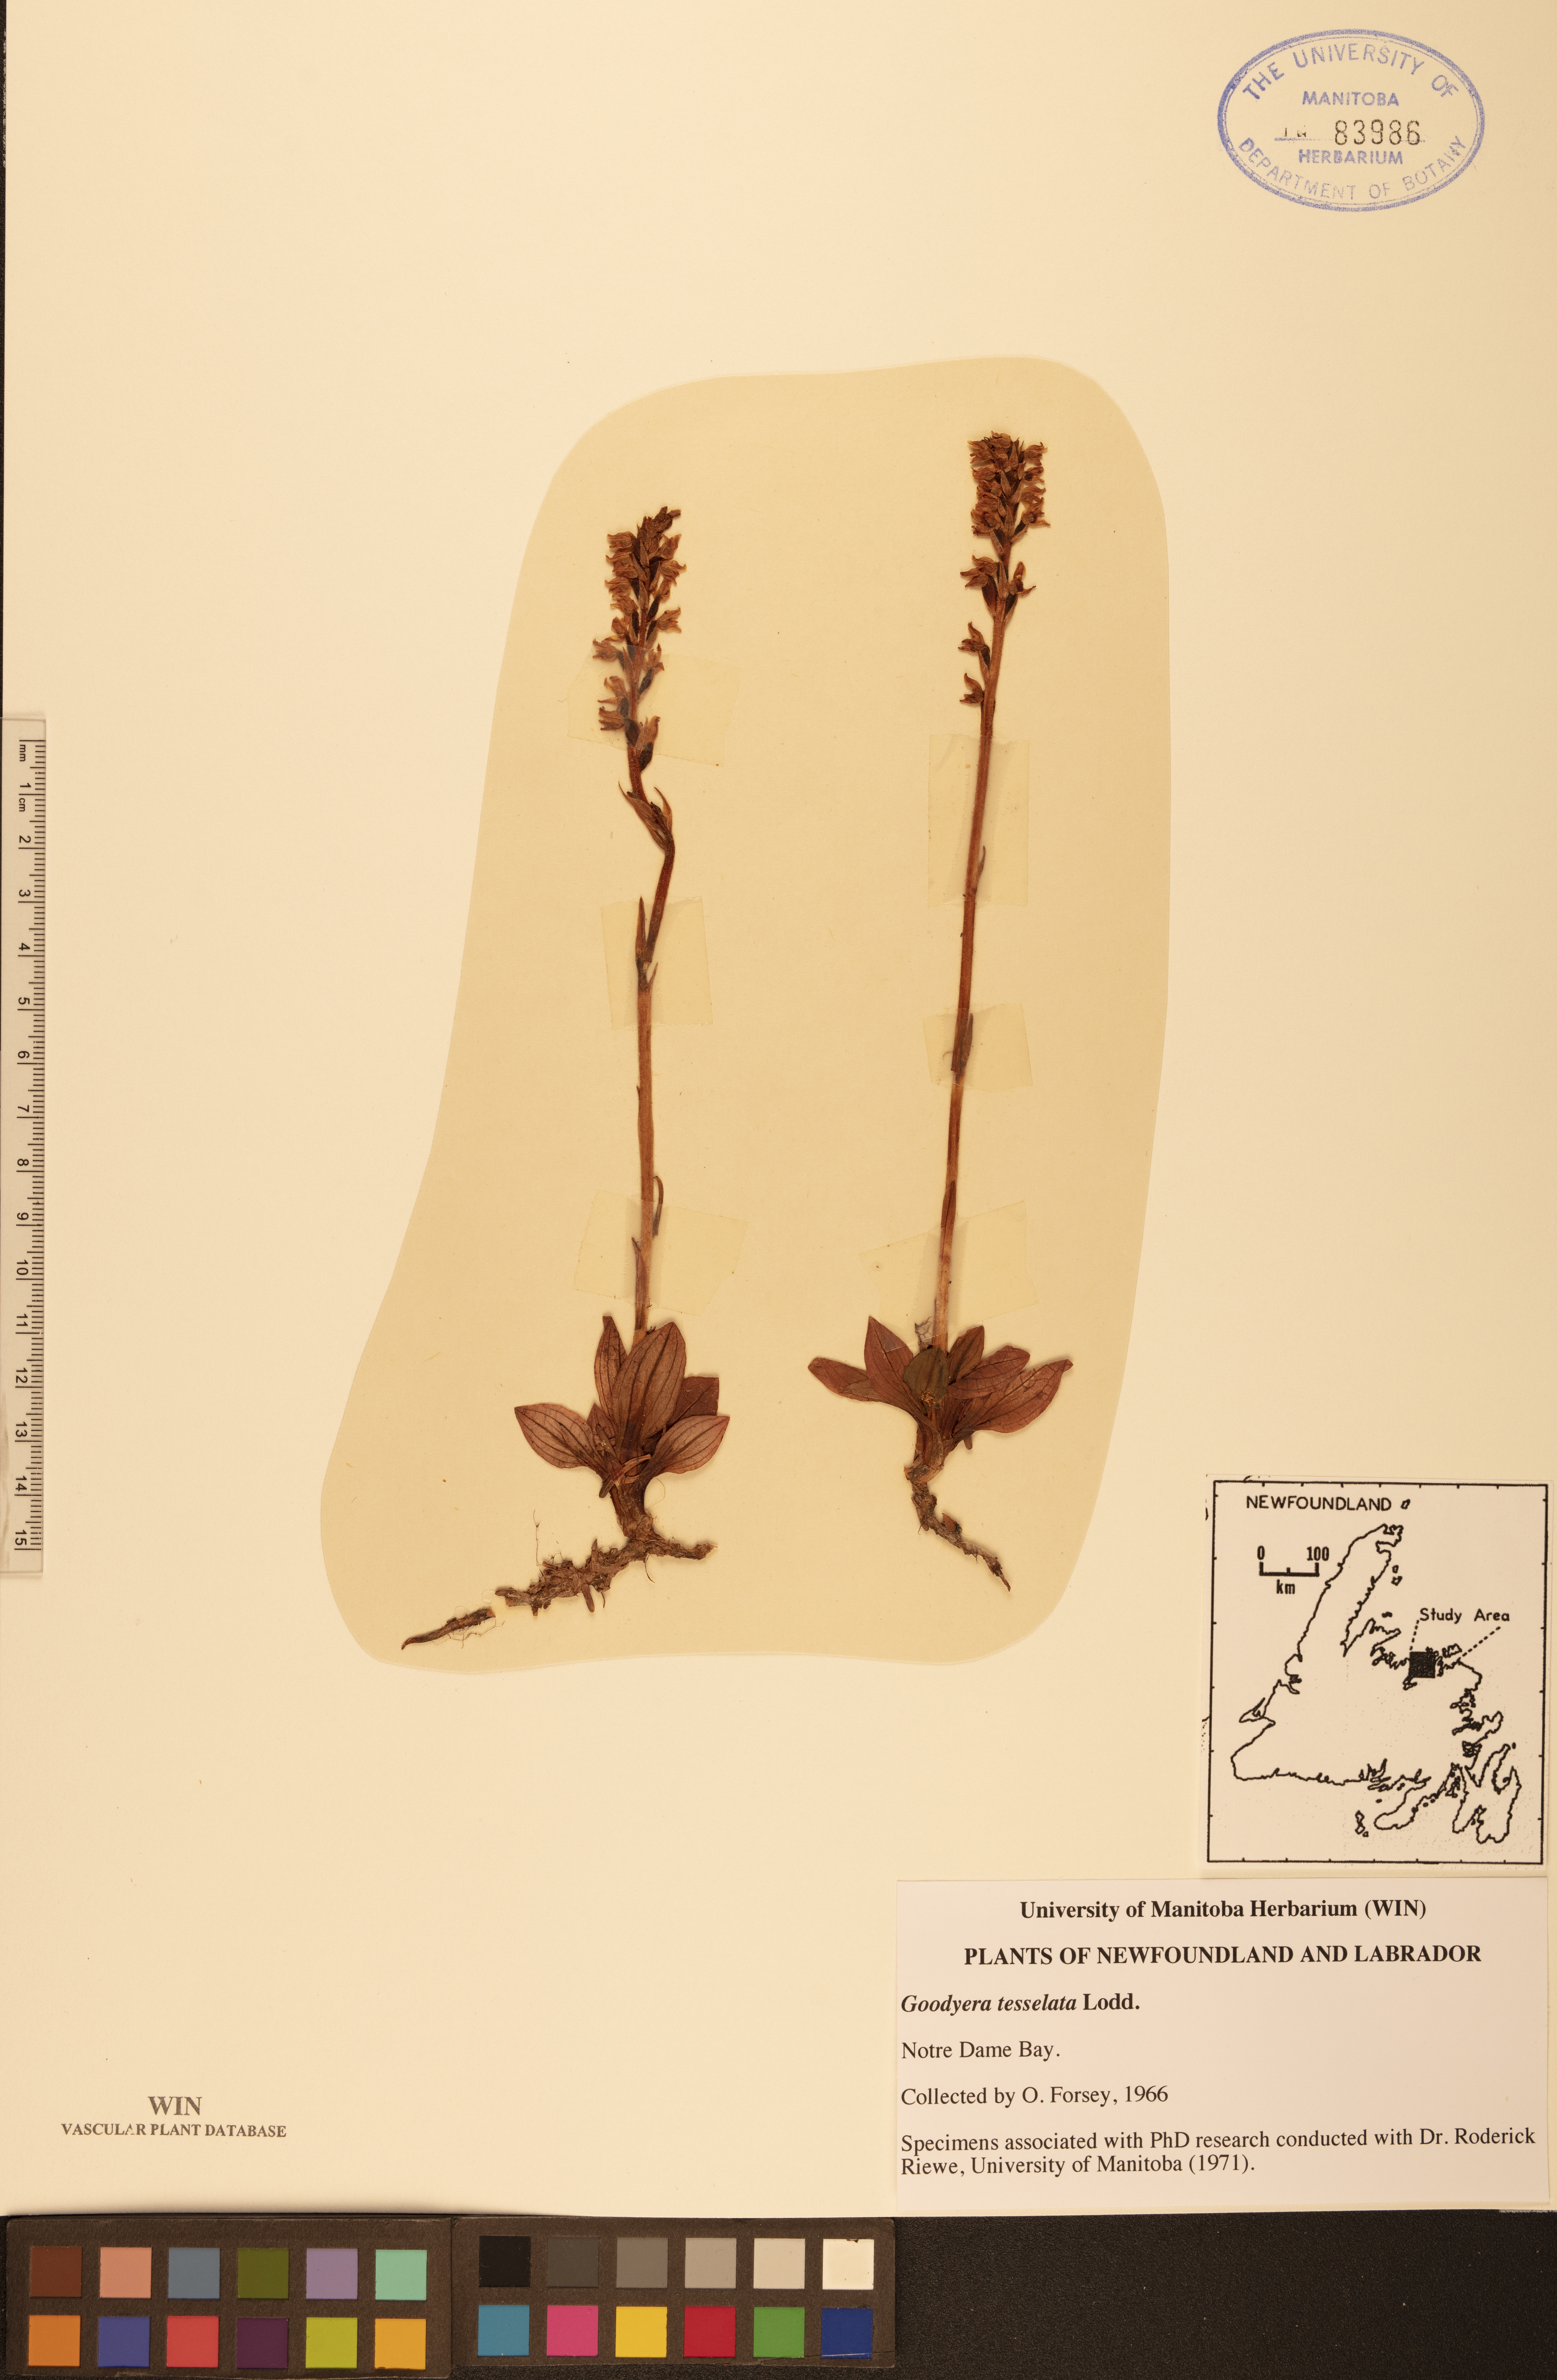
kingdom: Plantae
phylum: Tracheophyta
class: Liliopsida
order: Asparagales
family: Orchidaceae
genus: Goodyera
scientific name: Goodyera tesselata
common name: Checkered rattlesnake-plantain
